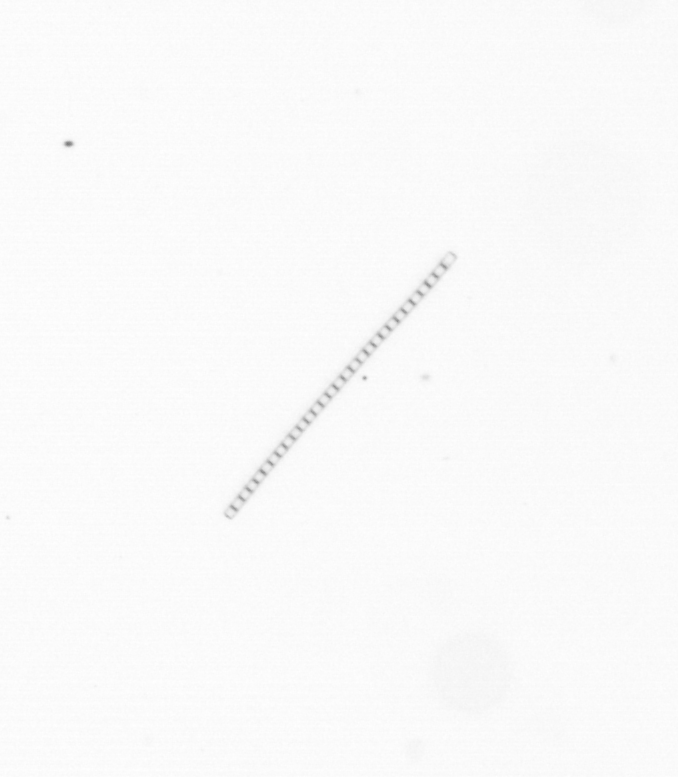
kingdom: Chromista
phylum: Ochrophyta
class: Bacillariophyceae
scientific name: Bacillariophyceae
